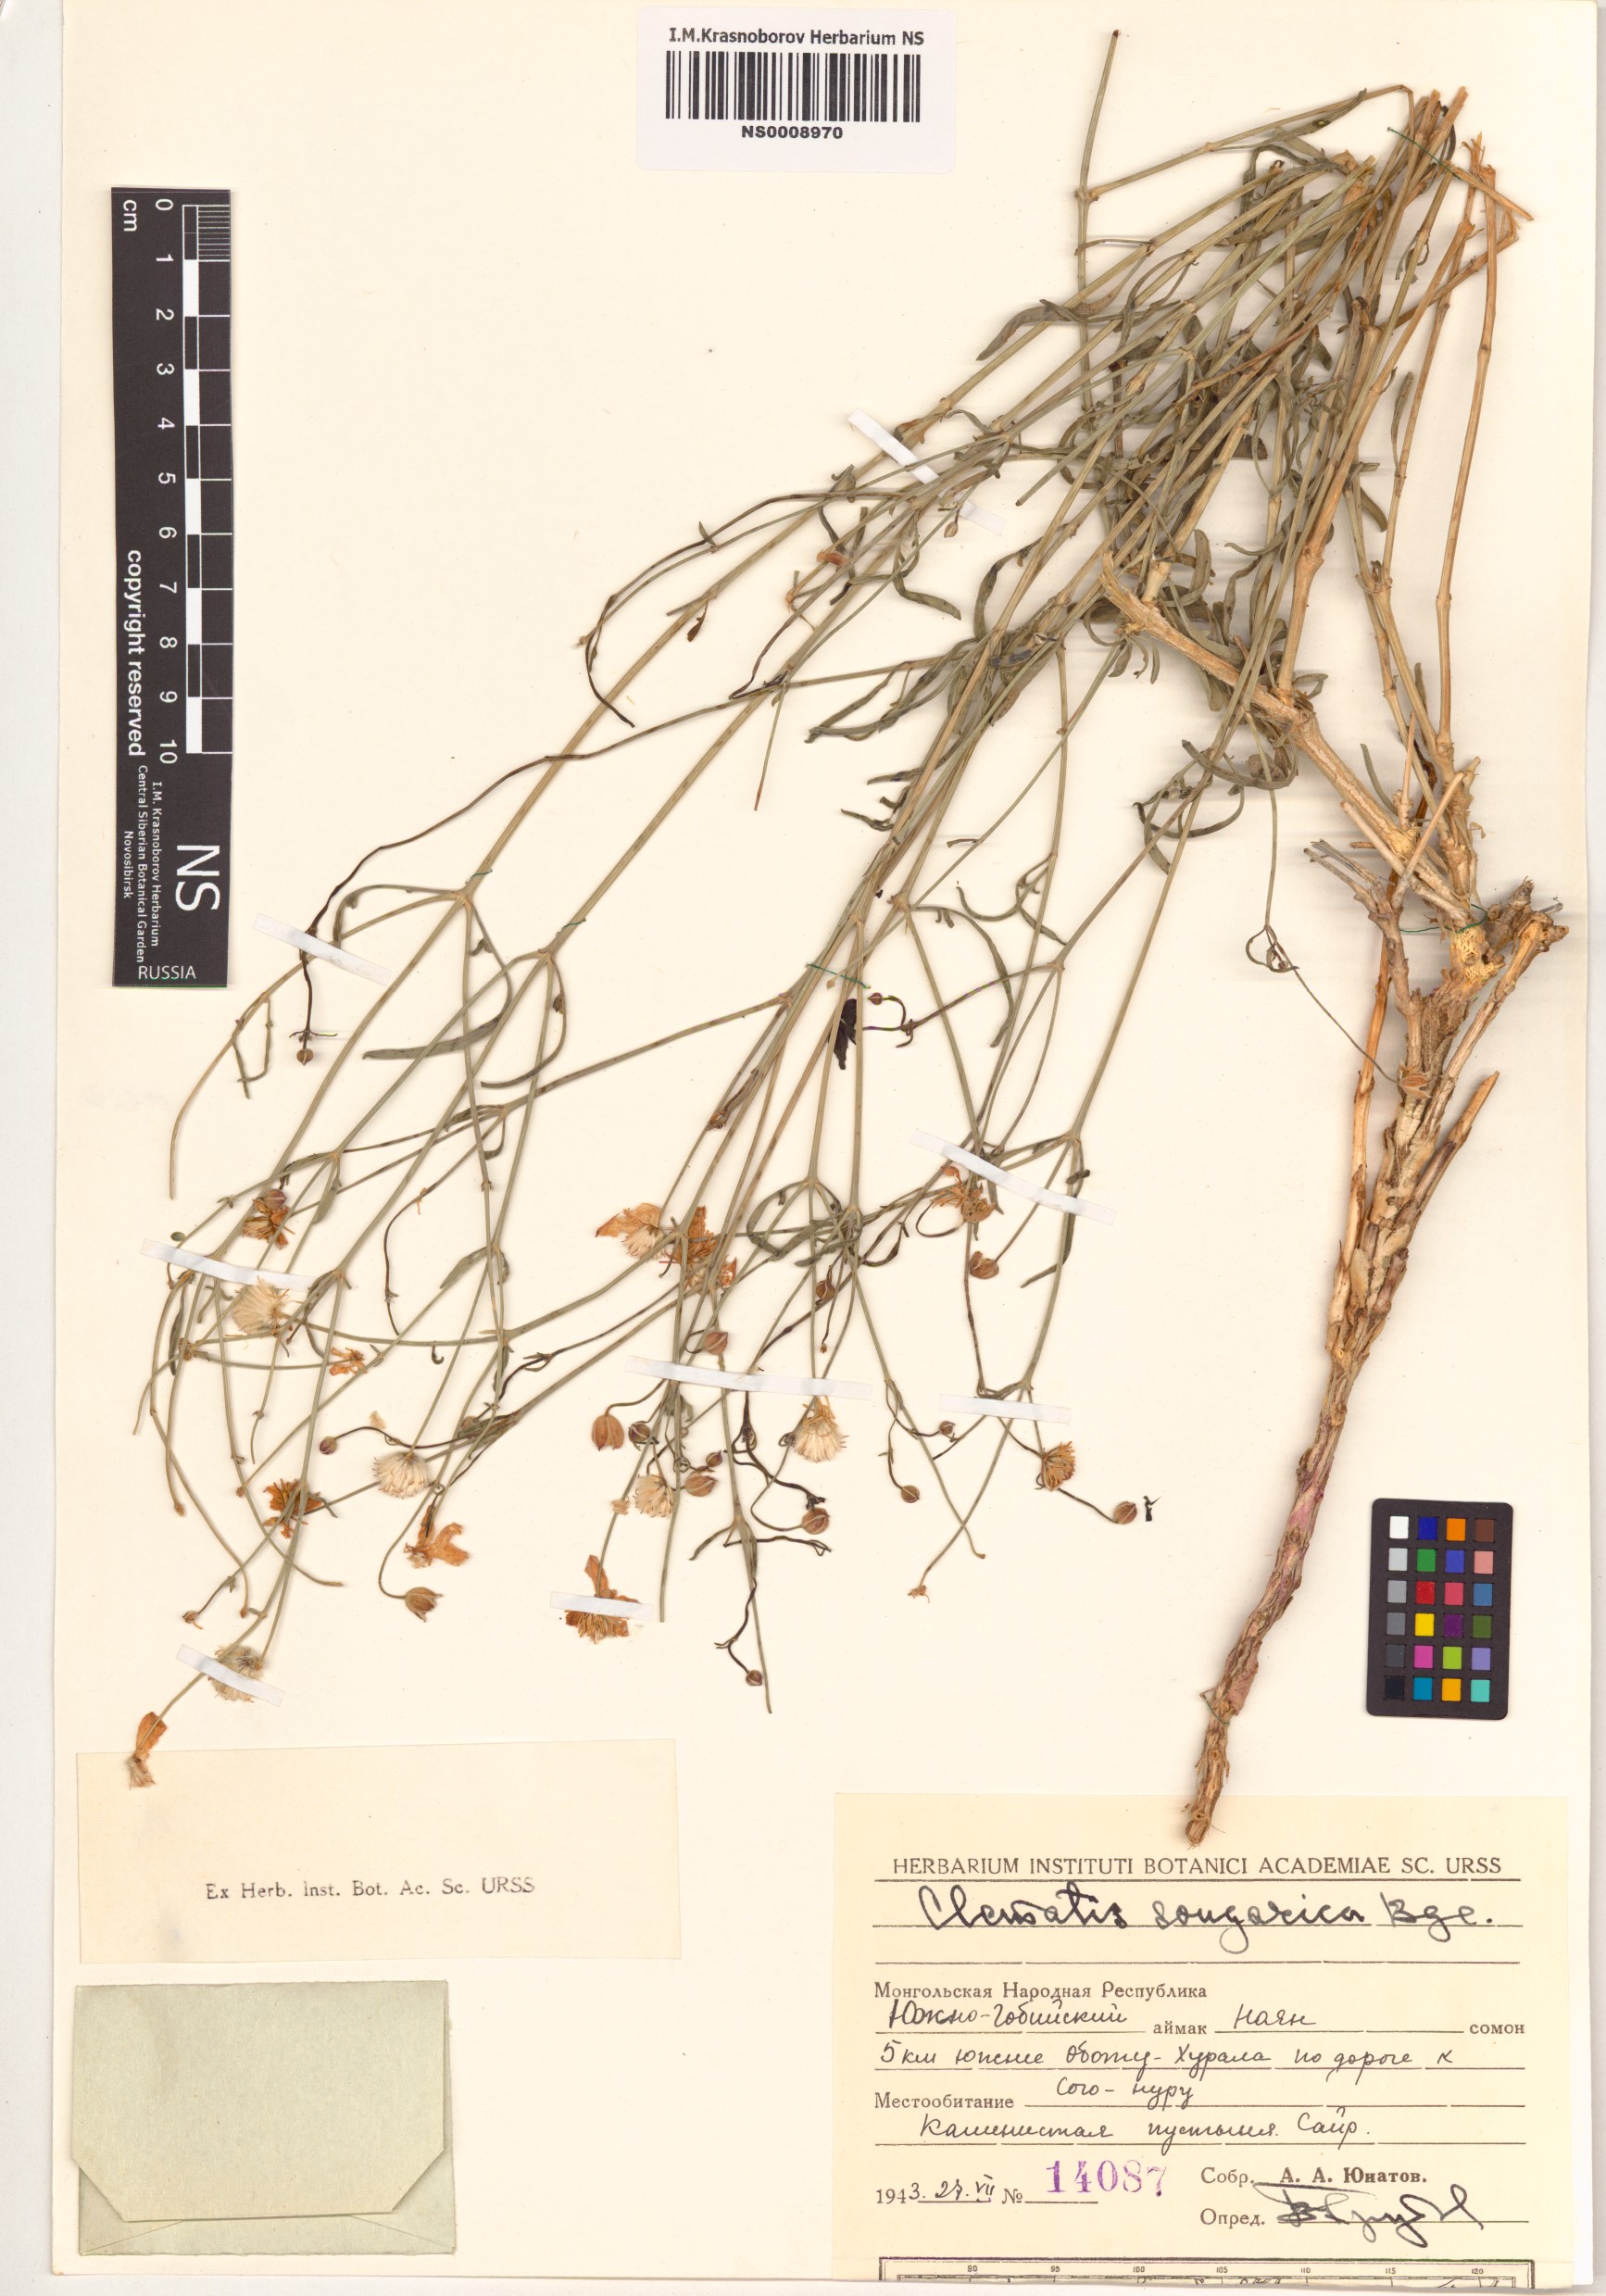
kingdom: Plantae
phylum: Tracheophyta
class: Magnoliopsida
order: Ranunculales
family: Ranunculaceae
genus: Clematis
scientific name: Clematis songarica
